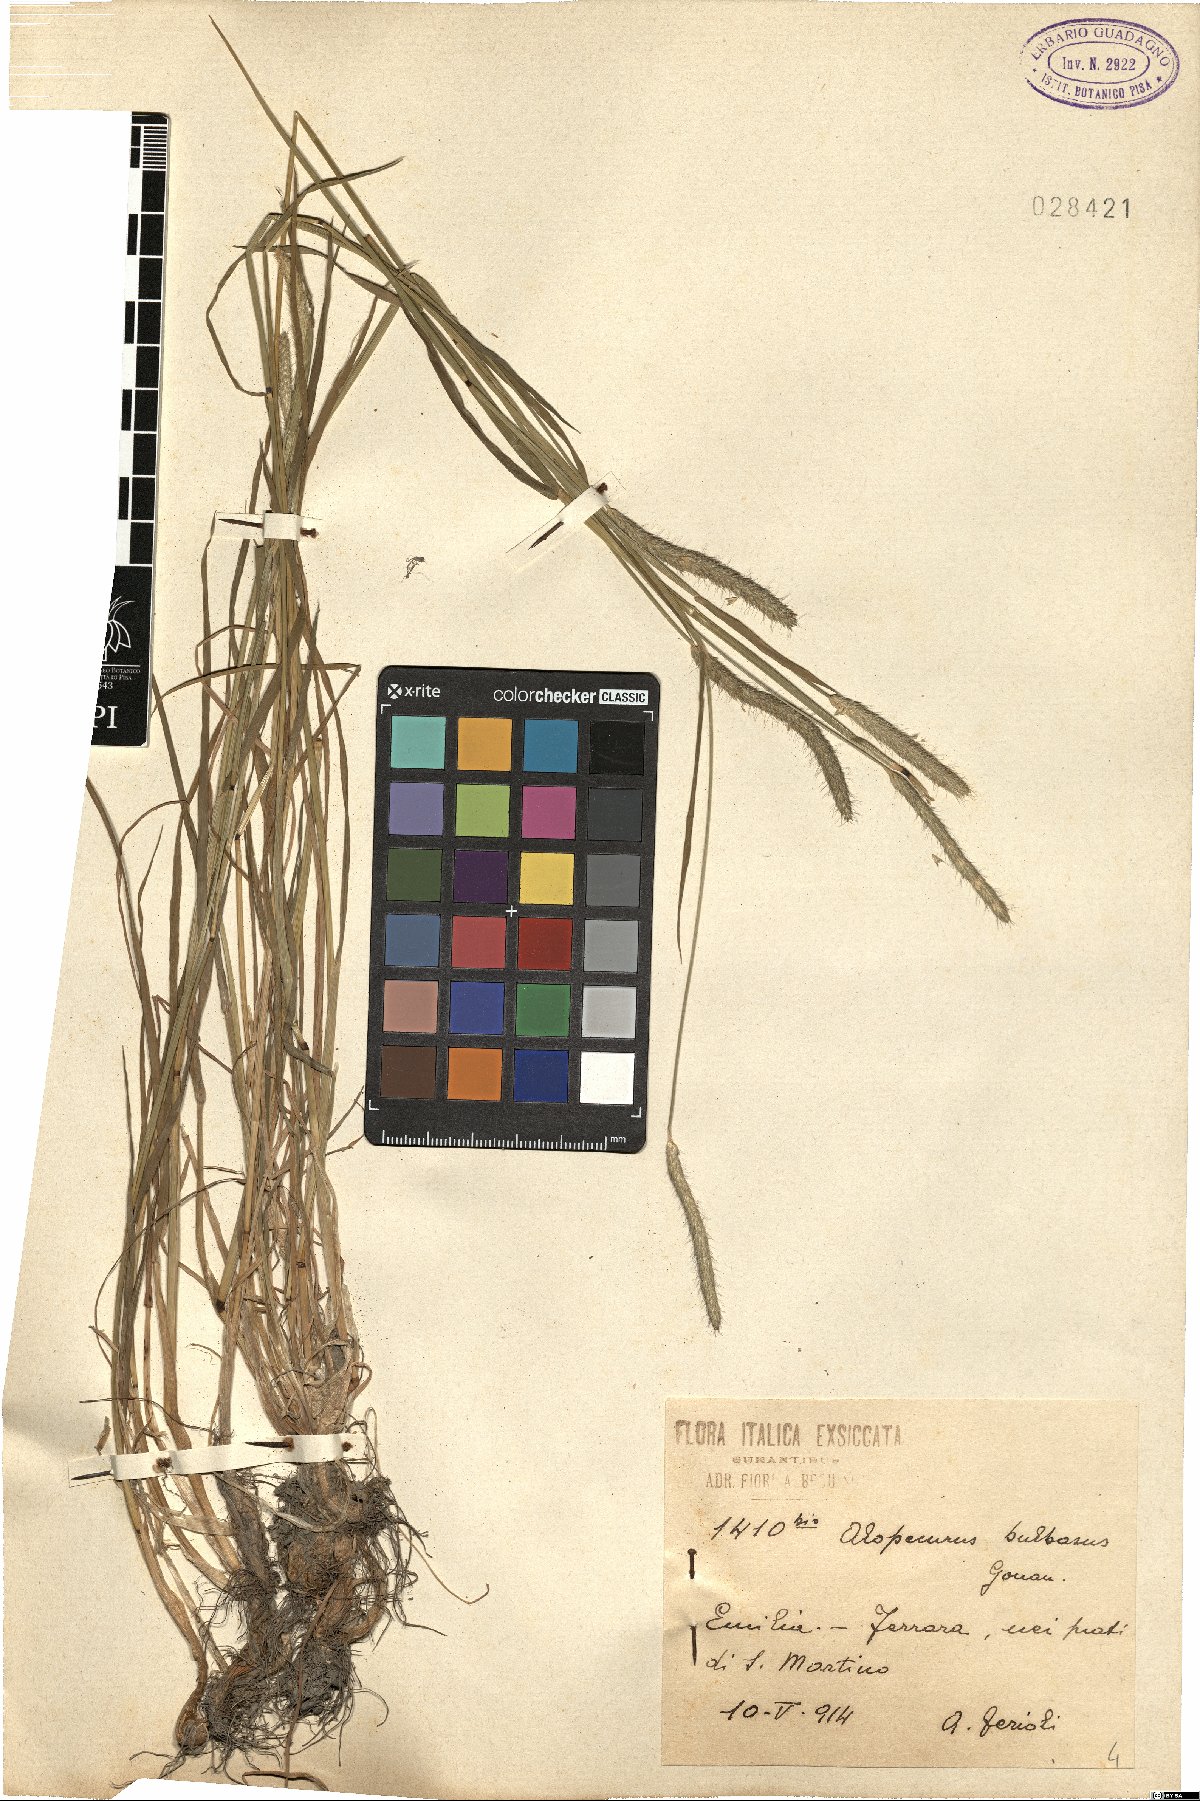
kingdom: Plantae
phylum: Tracheophyta
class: Liliopsida
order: Poales
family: Poaceae
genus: Alopecurus
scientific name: Alopecurus bulbosus
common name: Bulbous foxtail
